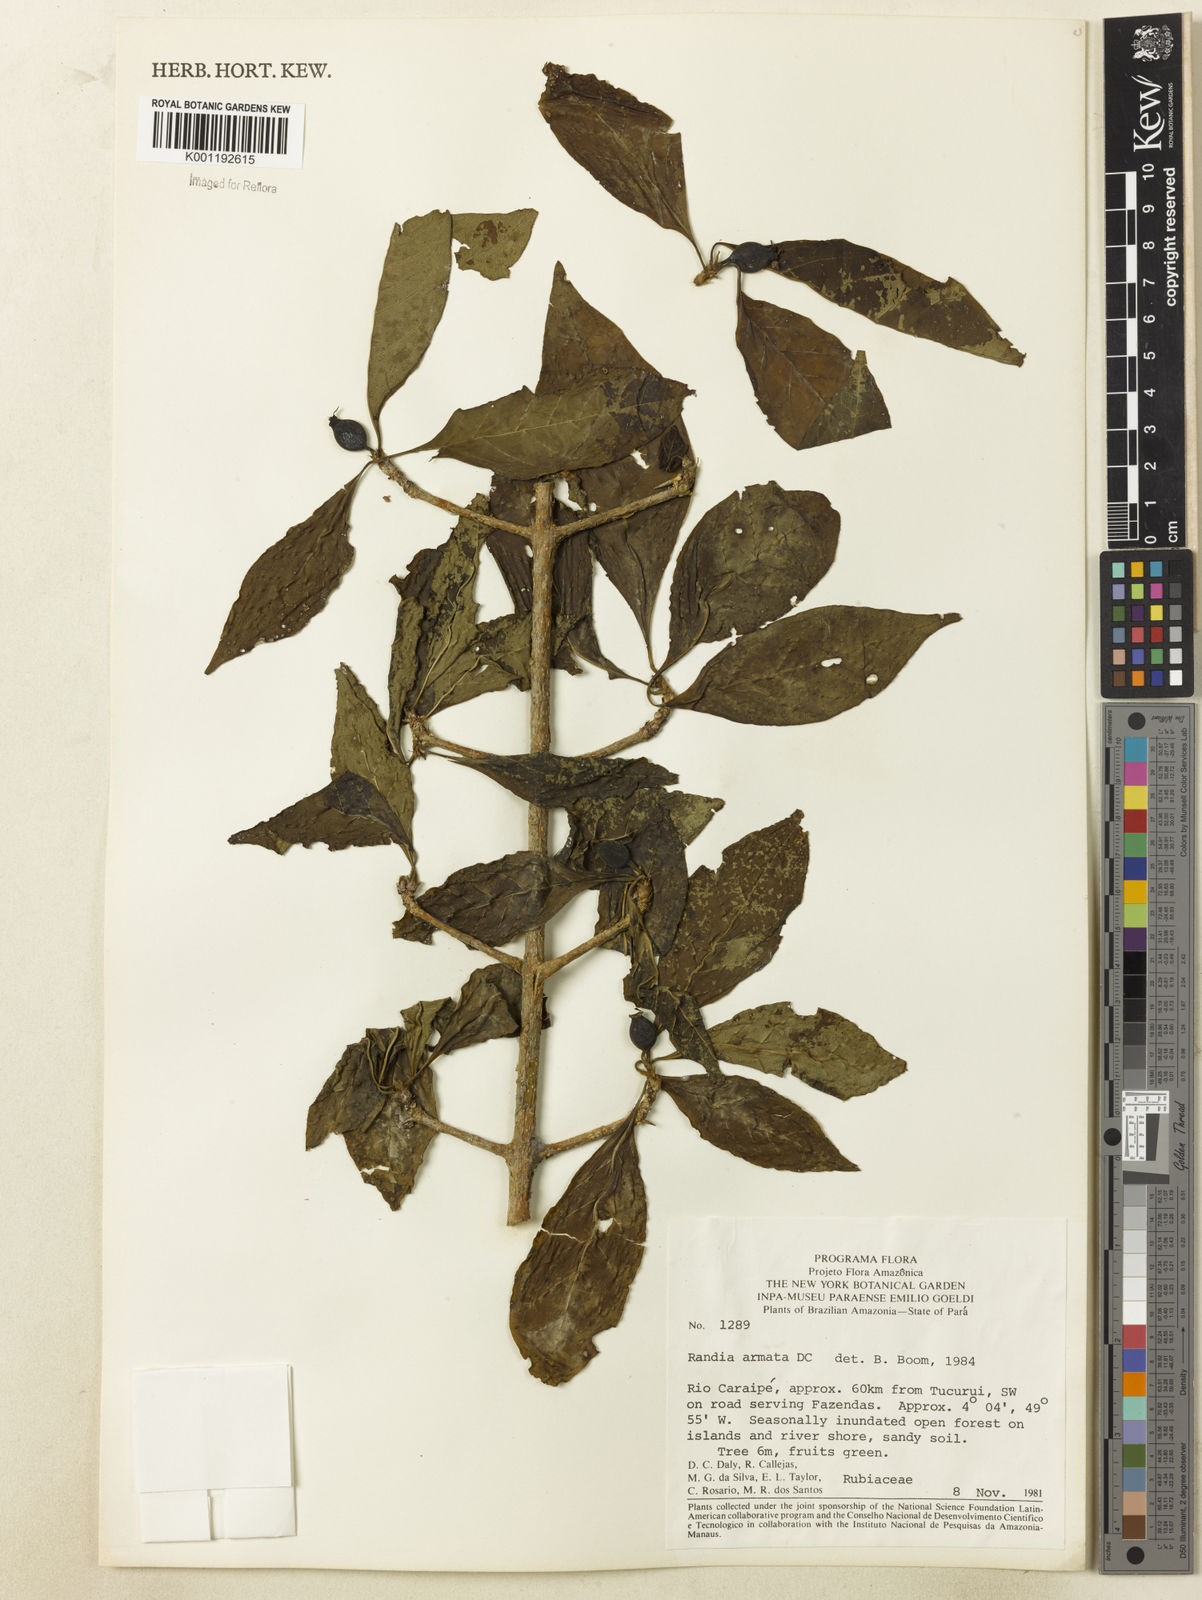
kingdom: Plantae
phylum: Tracheophyta
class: Magnoliopsida
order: Gentianales
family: Rubiaceae
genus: Randia
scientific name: Randia armata
